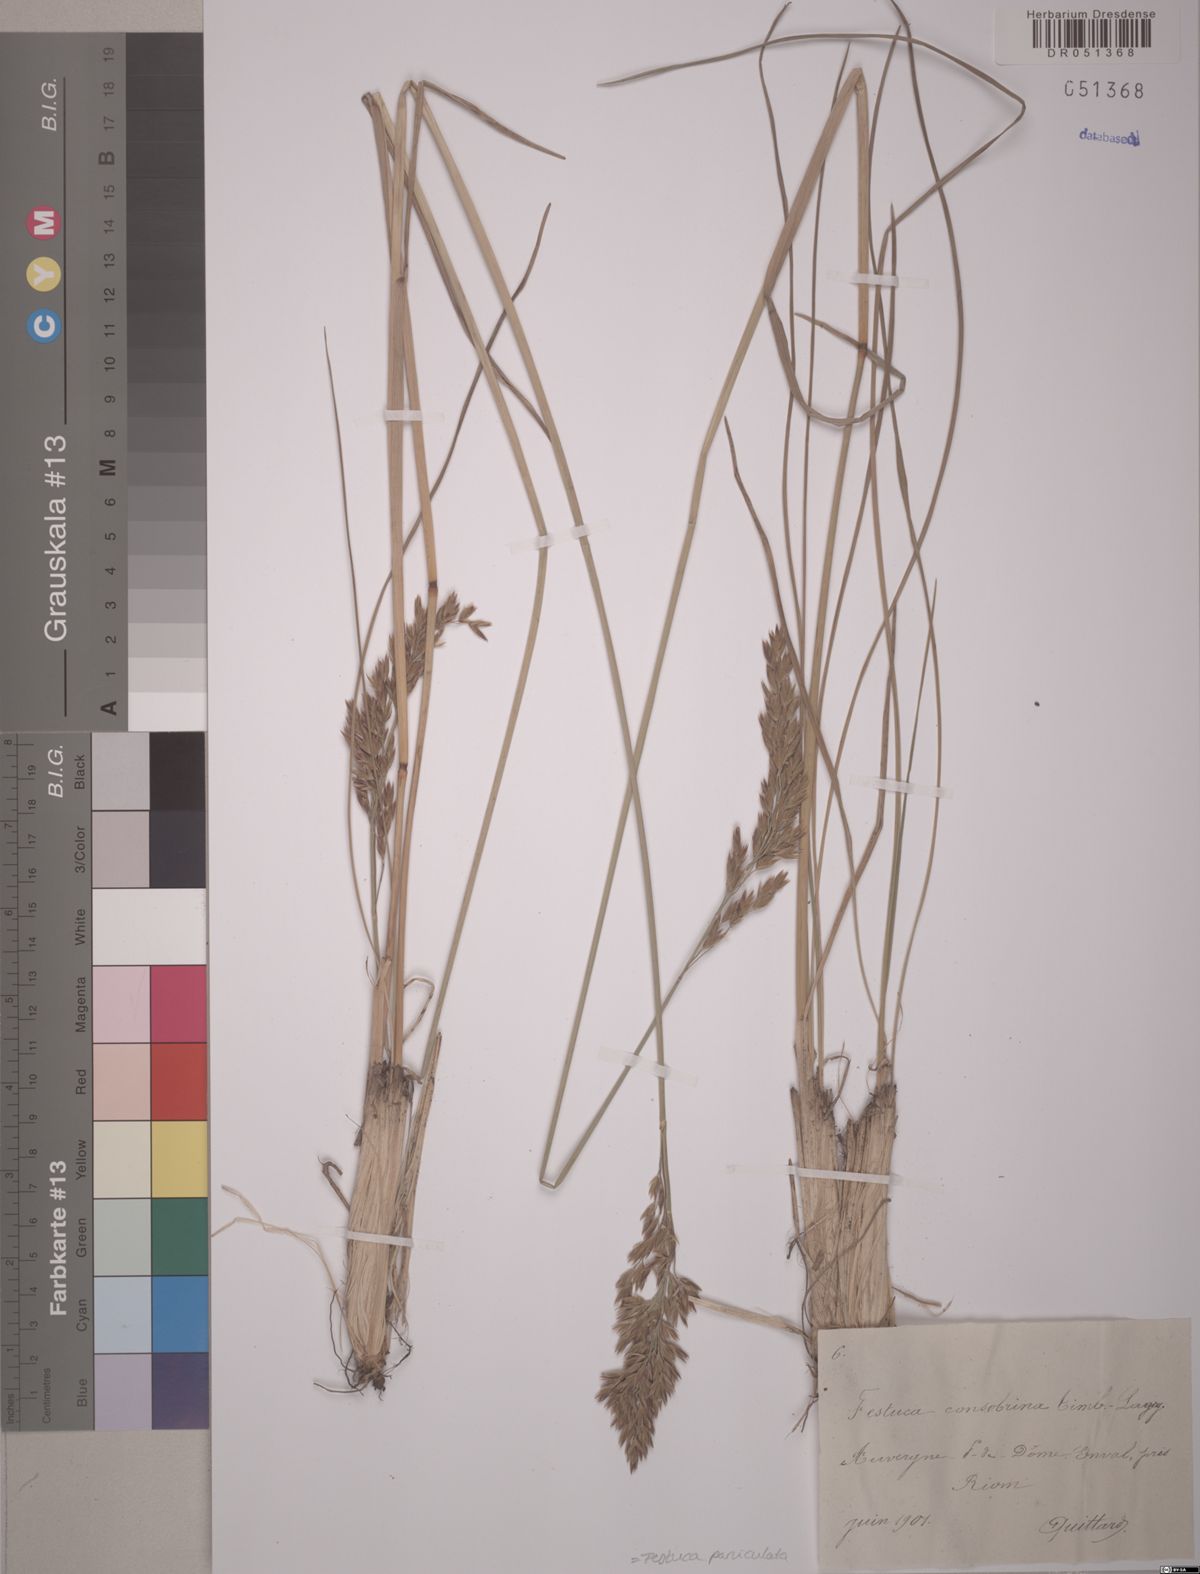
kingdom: Plantae
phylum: Tracheophyta
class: Liliopsida
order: Poales
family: Poaceae
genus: Patzkea
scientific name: Patzkea paniculata
